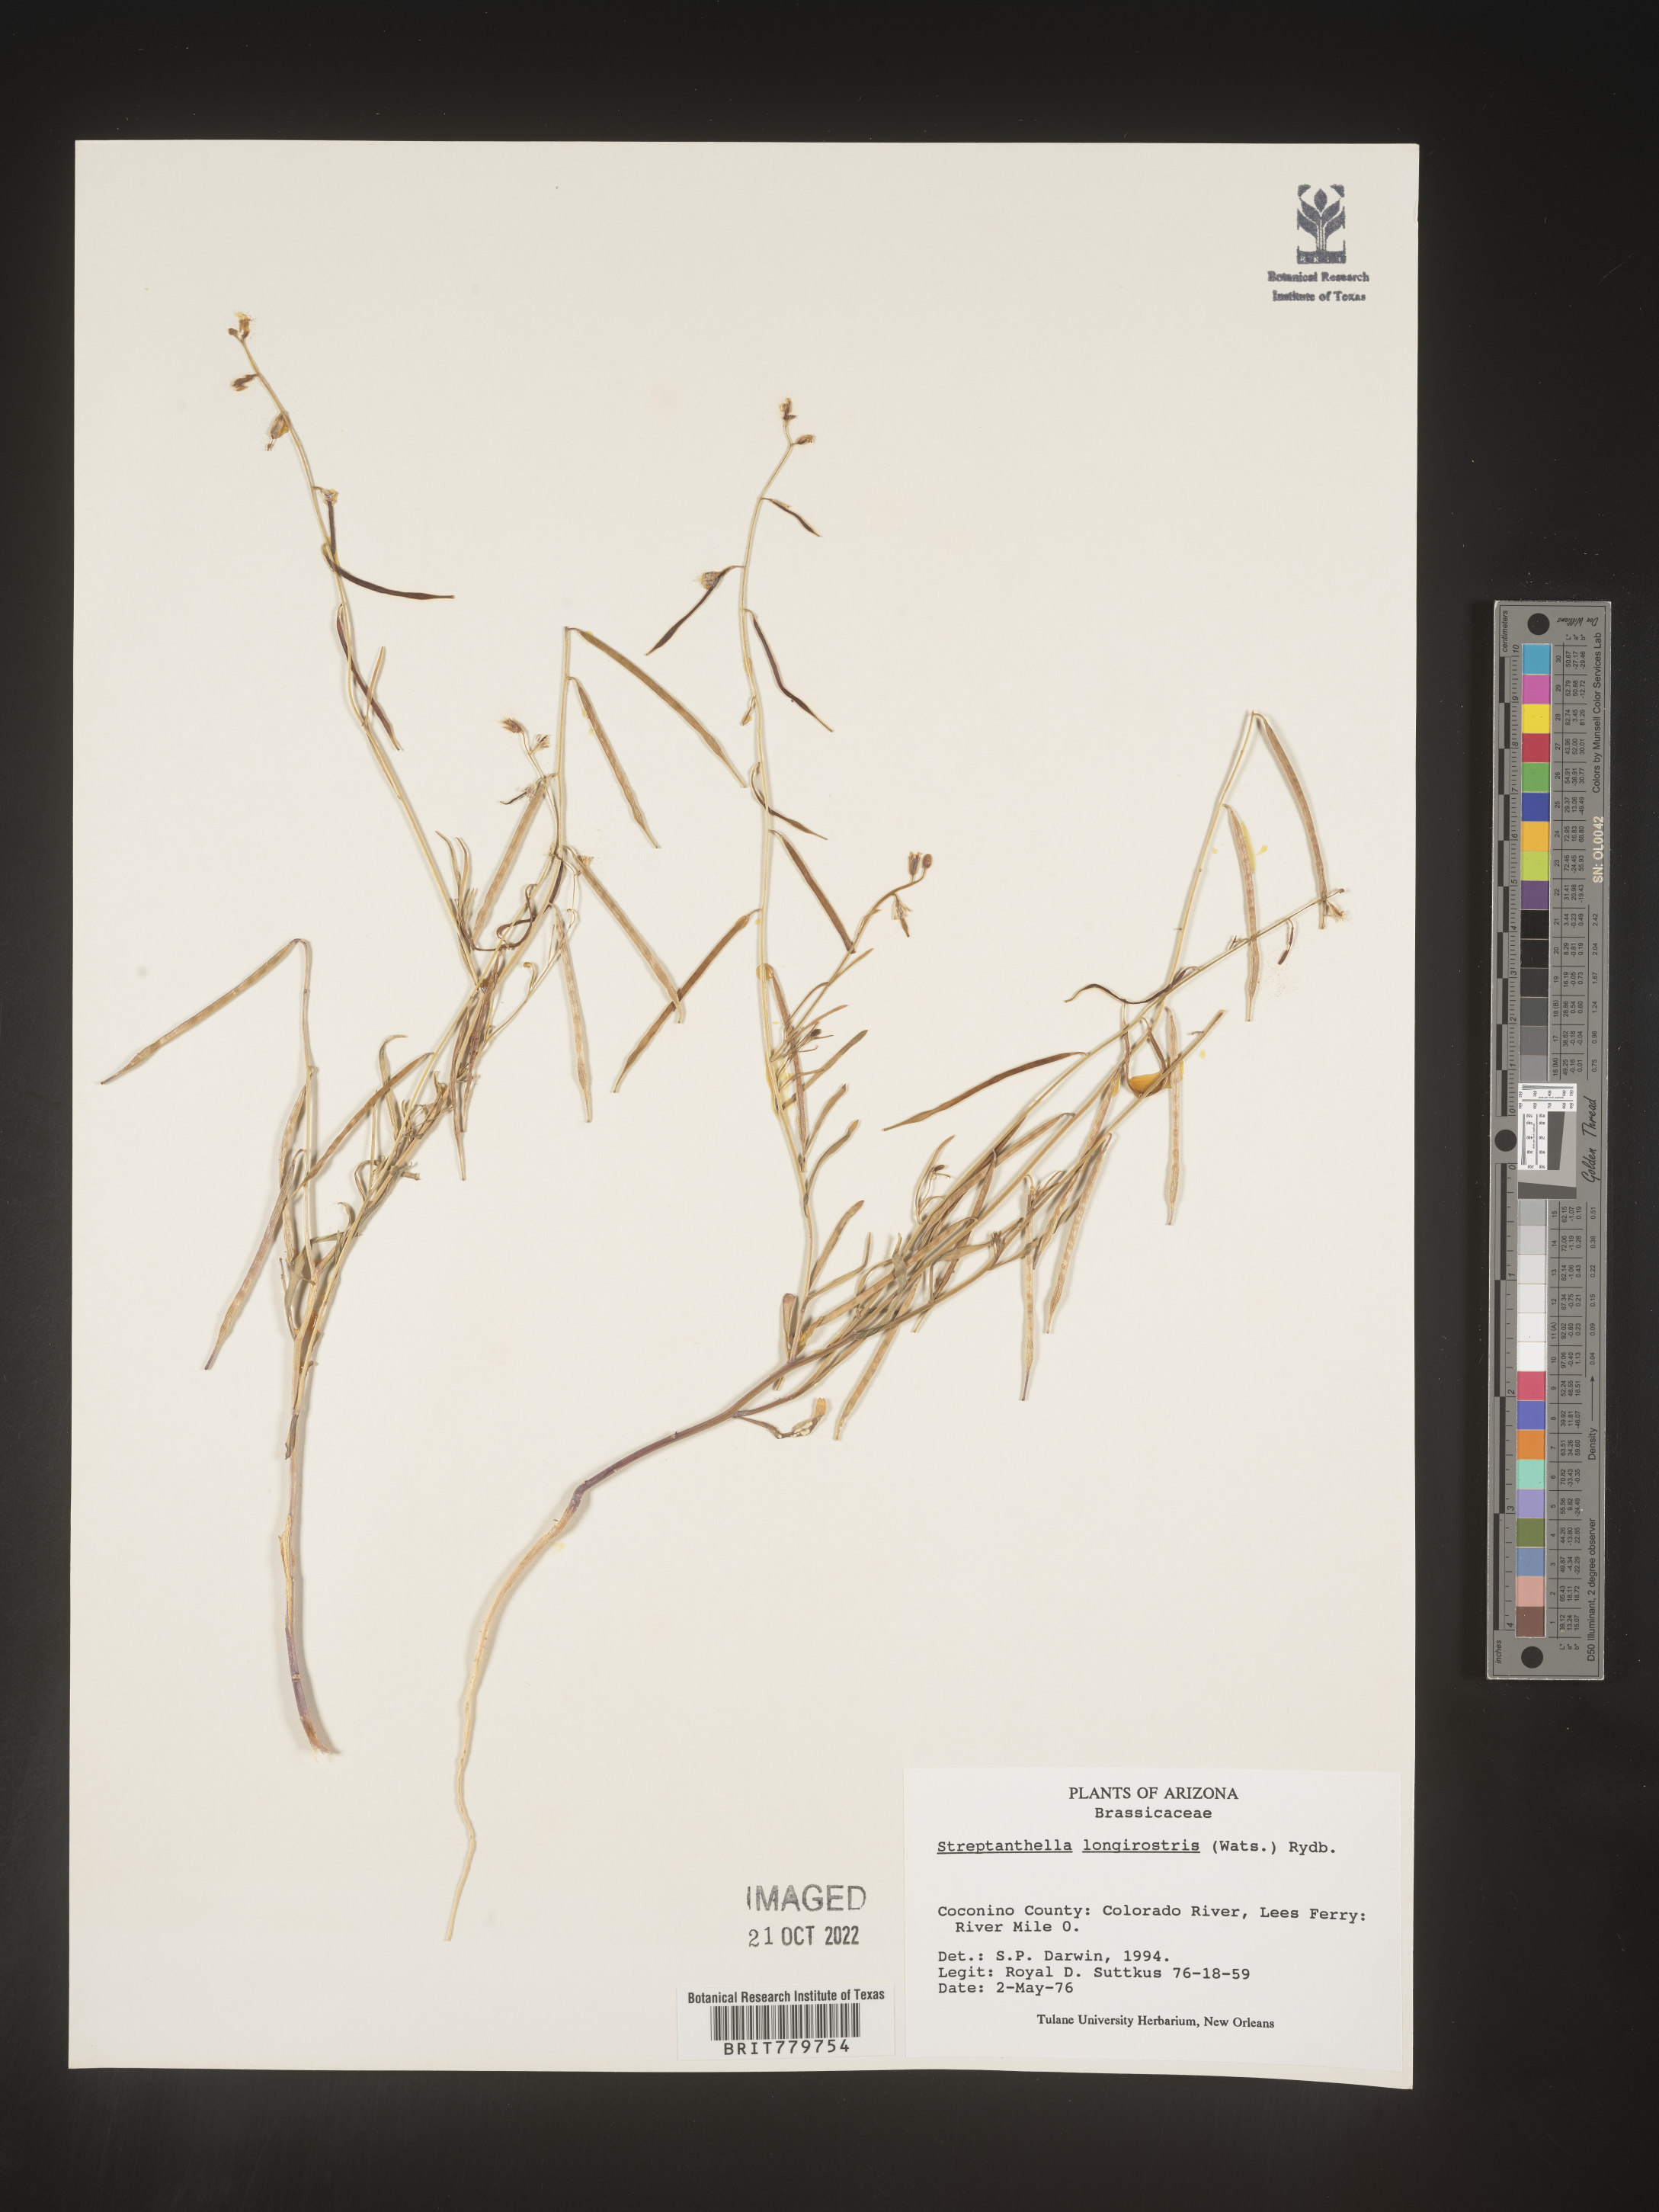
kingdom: Plantae
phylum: Tracheophyta
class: Magnoliopsida
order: Brassicales
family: Brassicaceae
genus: Streptanthus
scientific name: Streptanthus
